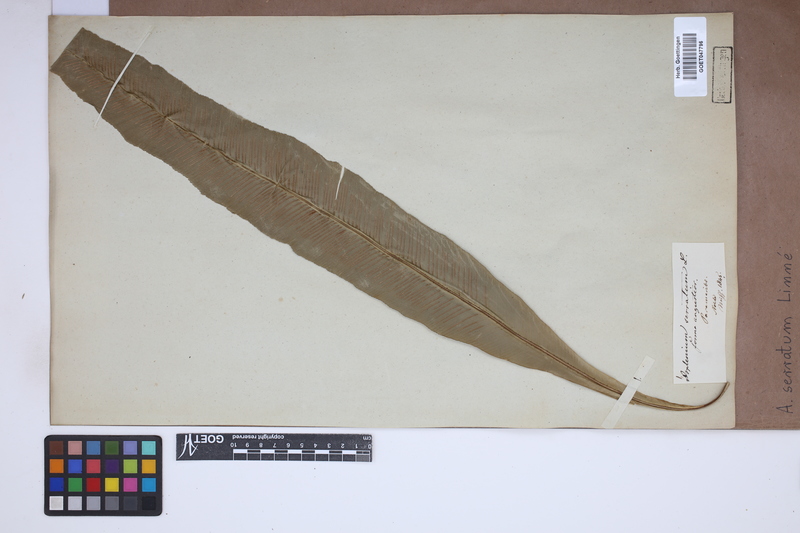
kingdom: Plantae
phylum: Tracheophyta
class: Polypodiopsida
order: Polypodiales
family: Aspleniaceae
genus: Asplenium
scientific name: Asplenium serratum
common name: Wild birdnest fern
